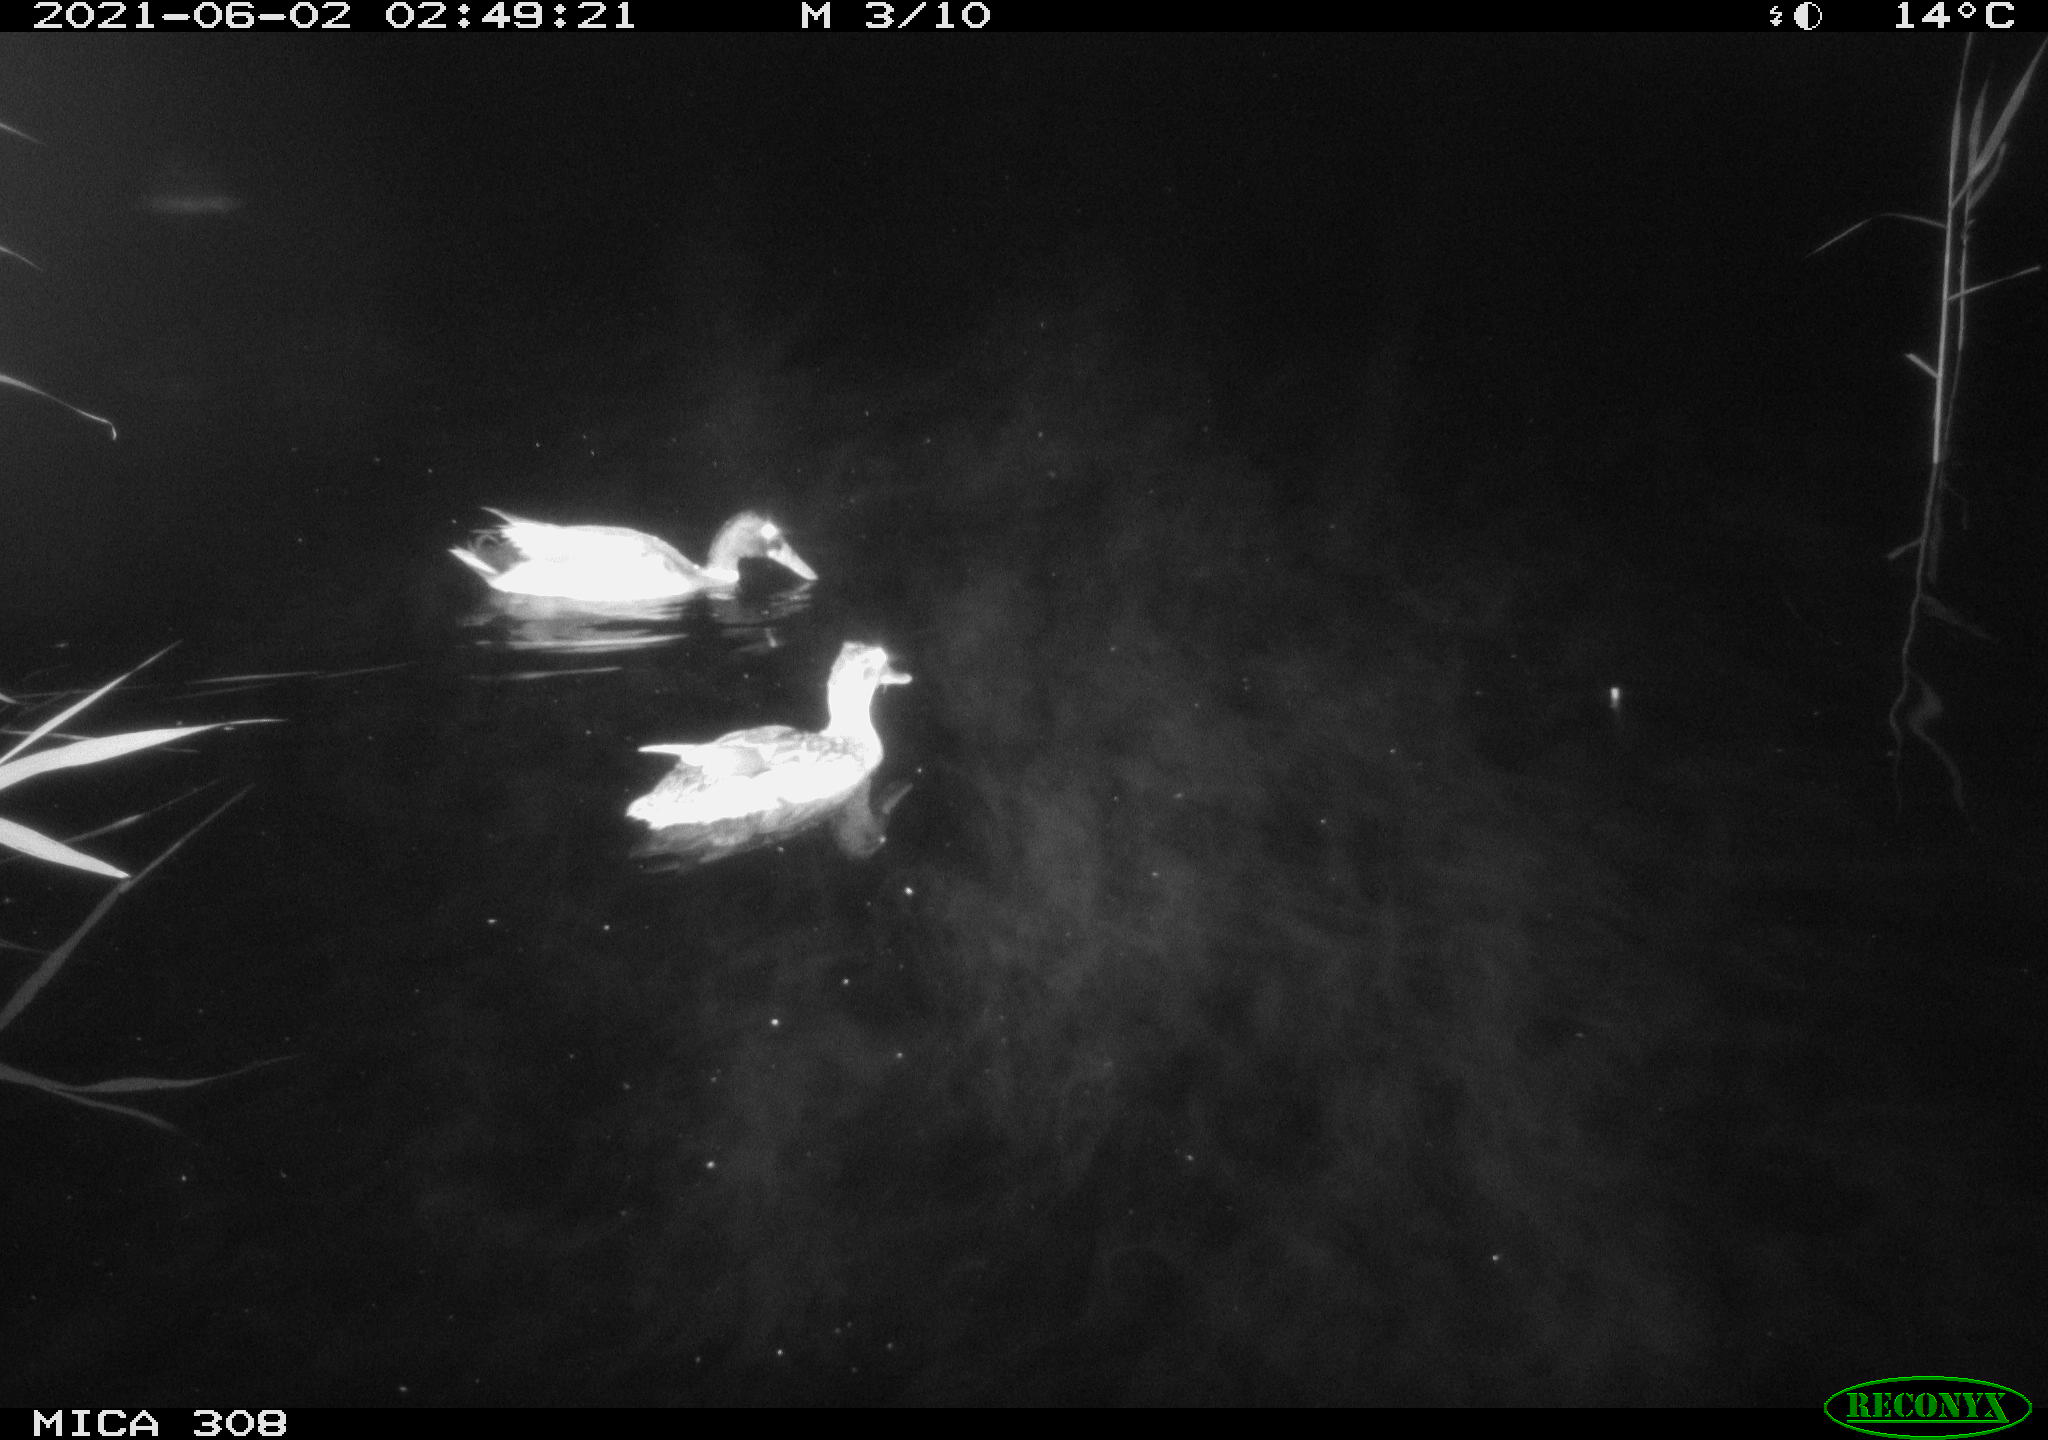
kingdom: Animalia
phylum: Chordata
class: Aves
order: Anseriformes
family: Anatidae
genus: Anas
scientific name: Anas platyrhynchos
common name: Mallard
